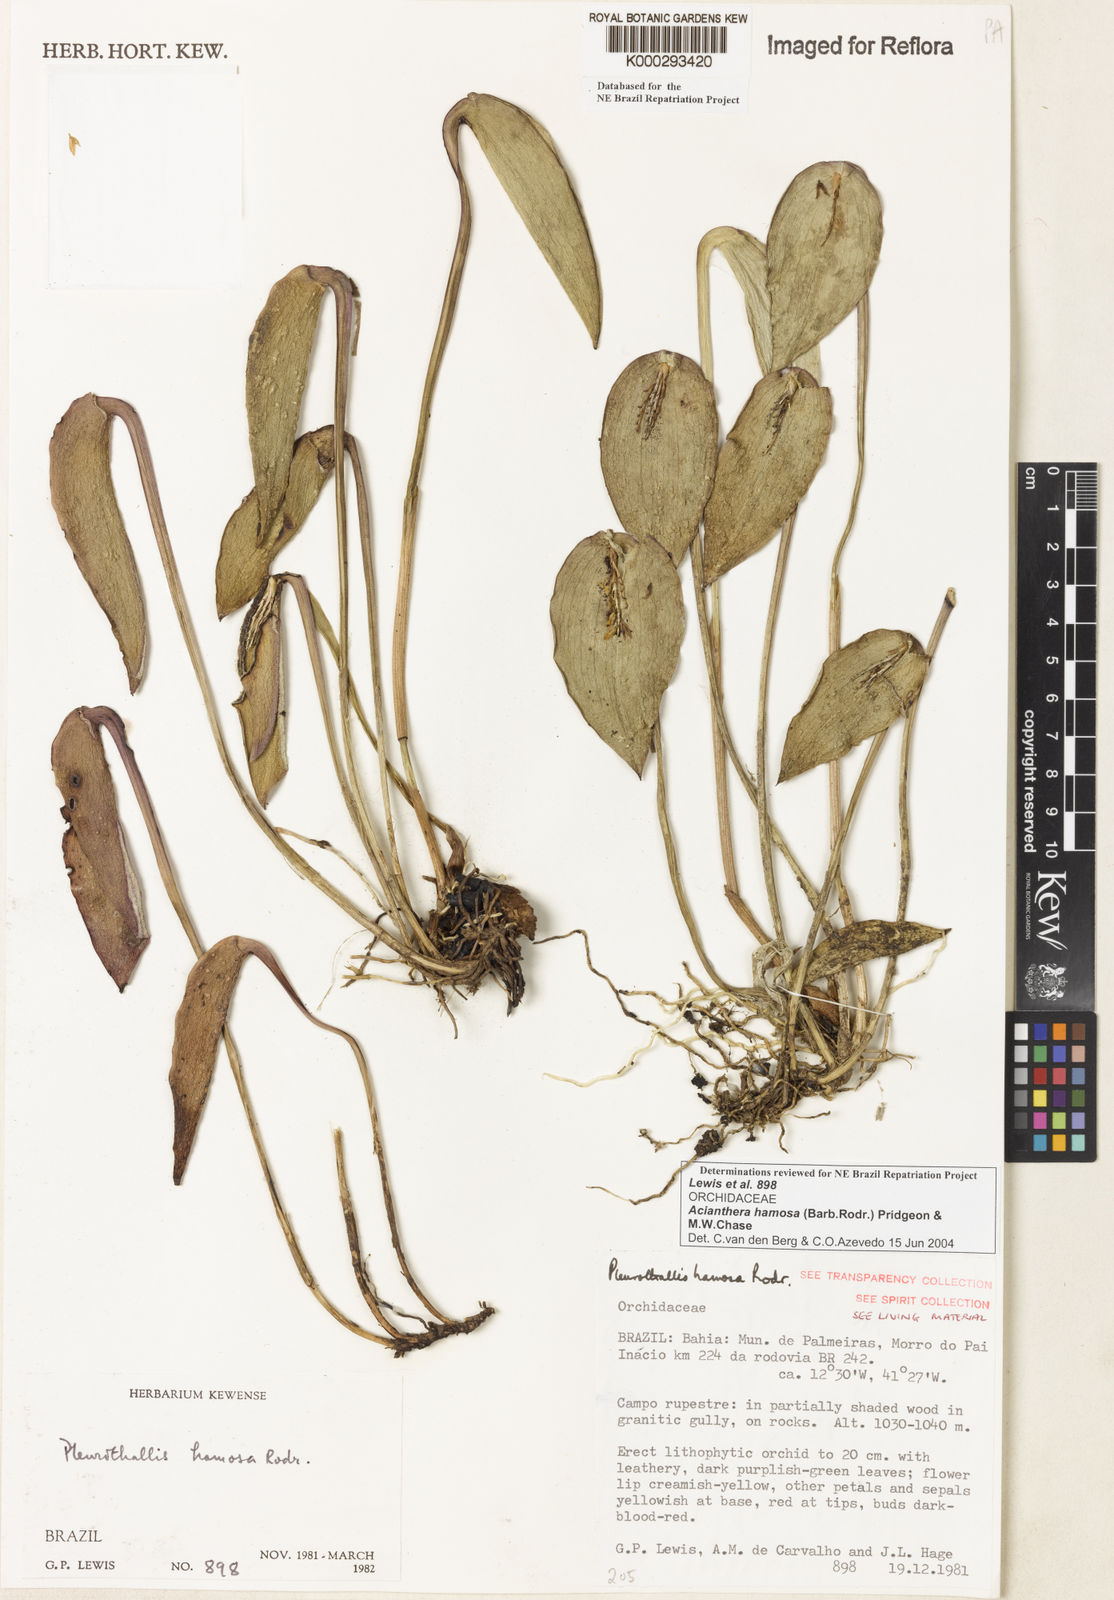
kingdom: Plantae
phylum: Tracheophyta
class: Liliopsida
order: Asparagales
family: Orchidaceae
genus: Acianthera
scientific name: Acianthera prolifera
